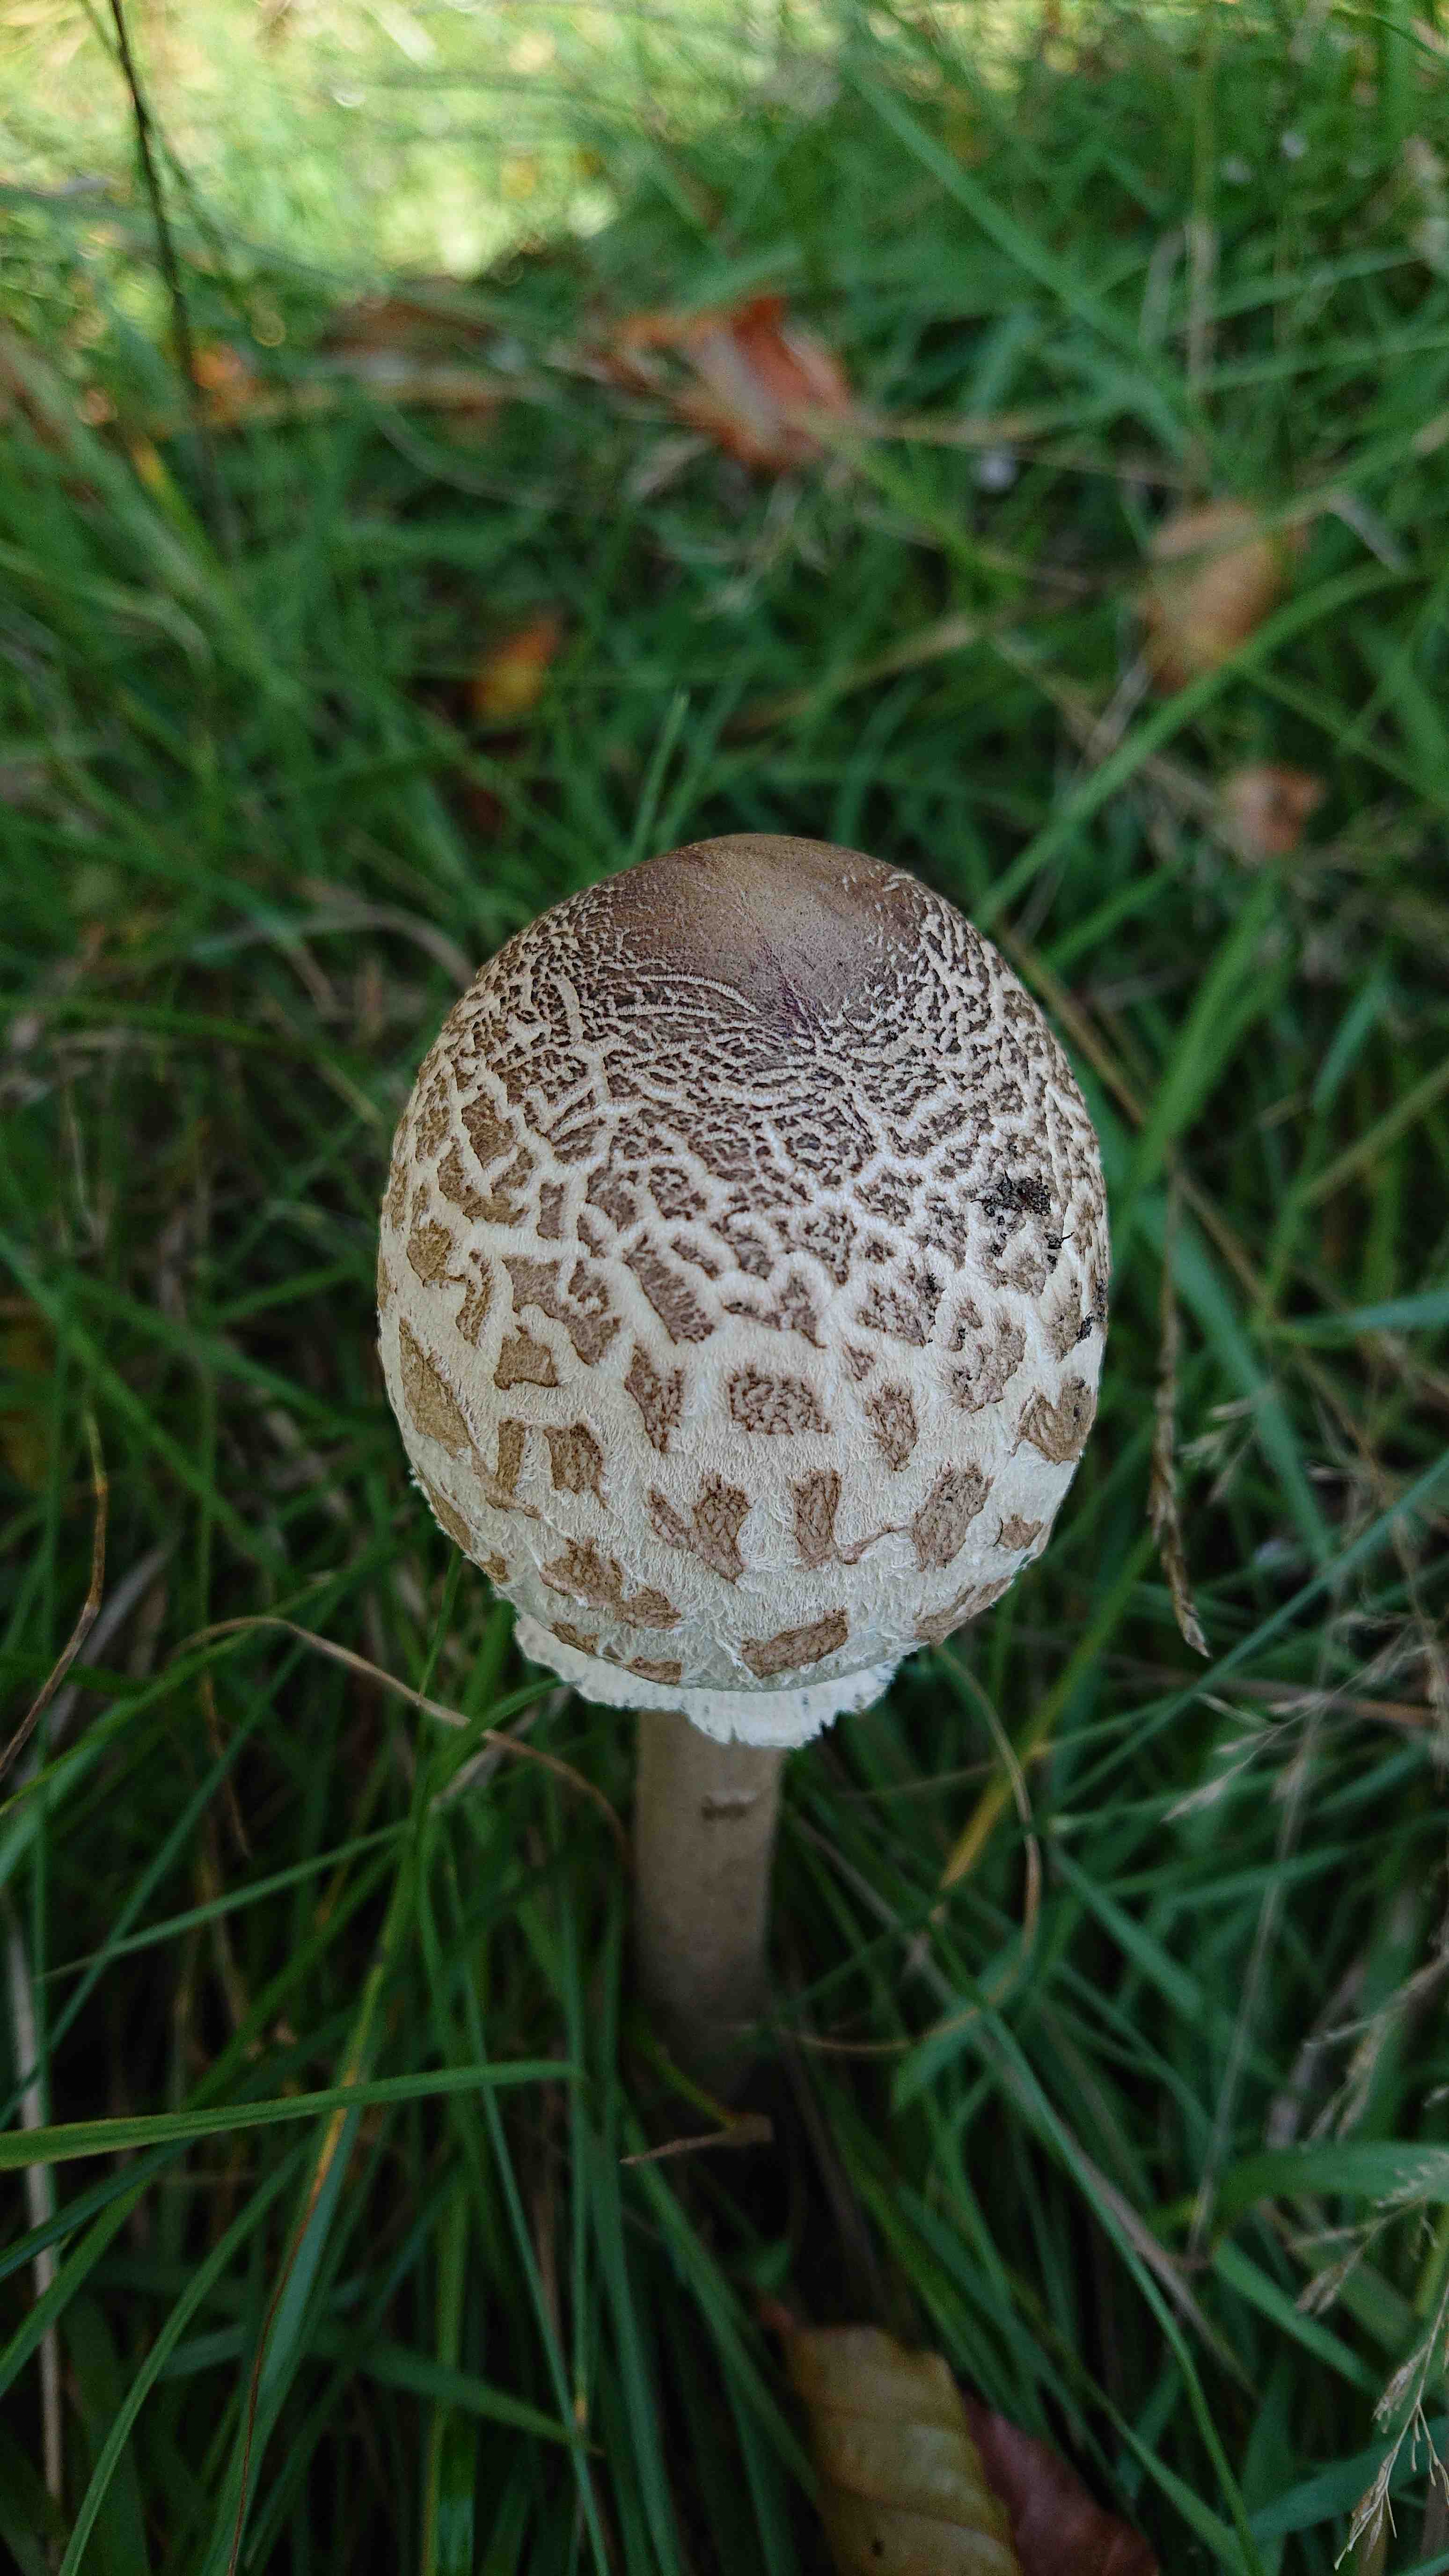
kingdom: Fungi
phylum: Basidiomycota
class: Agaricomycetes
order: Agaricales
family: Agaricaceae
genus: Macrolepiota
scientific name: Macrolepiota procera
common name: stor kæmpeparasolhat
